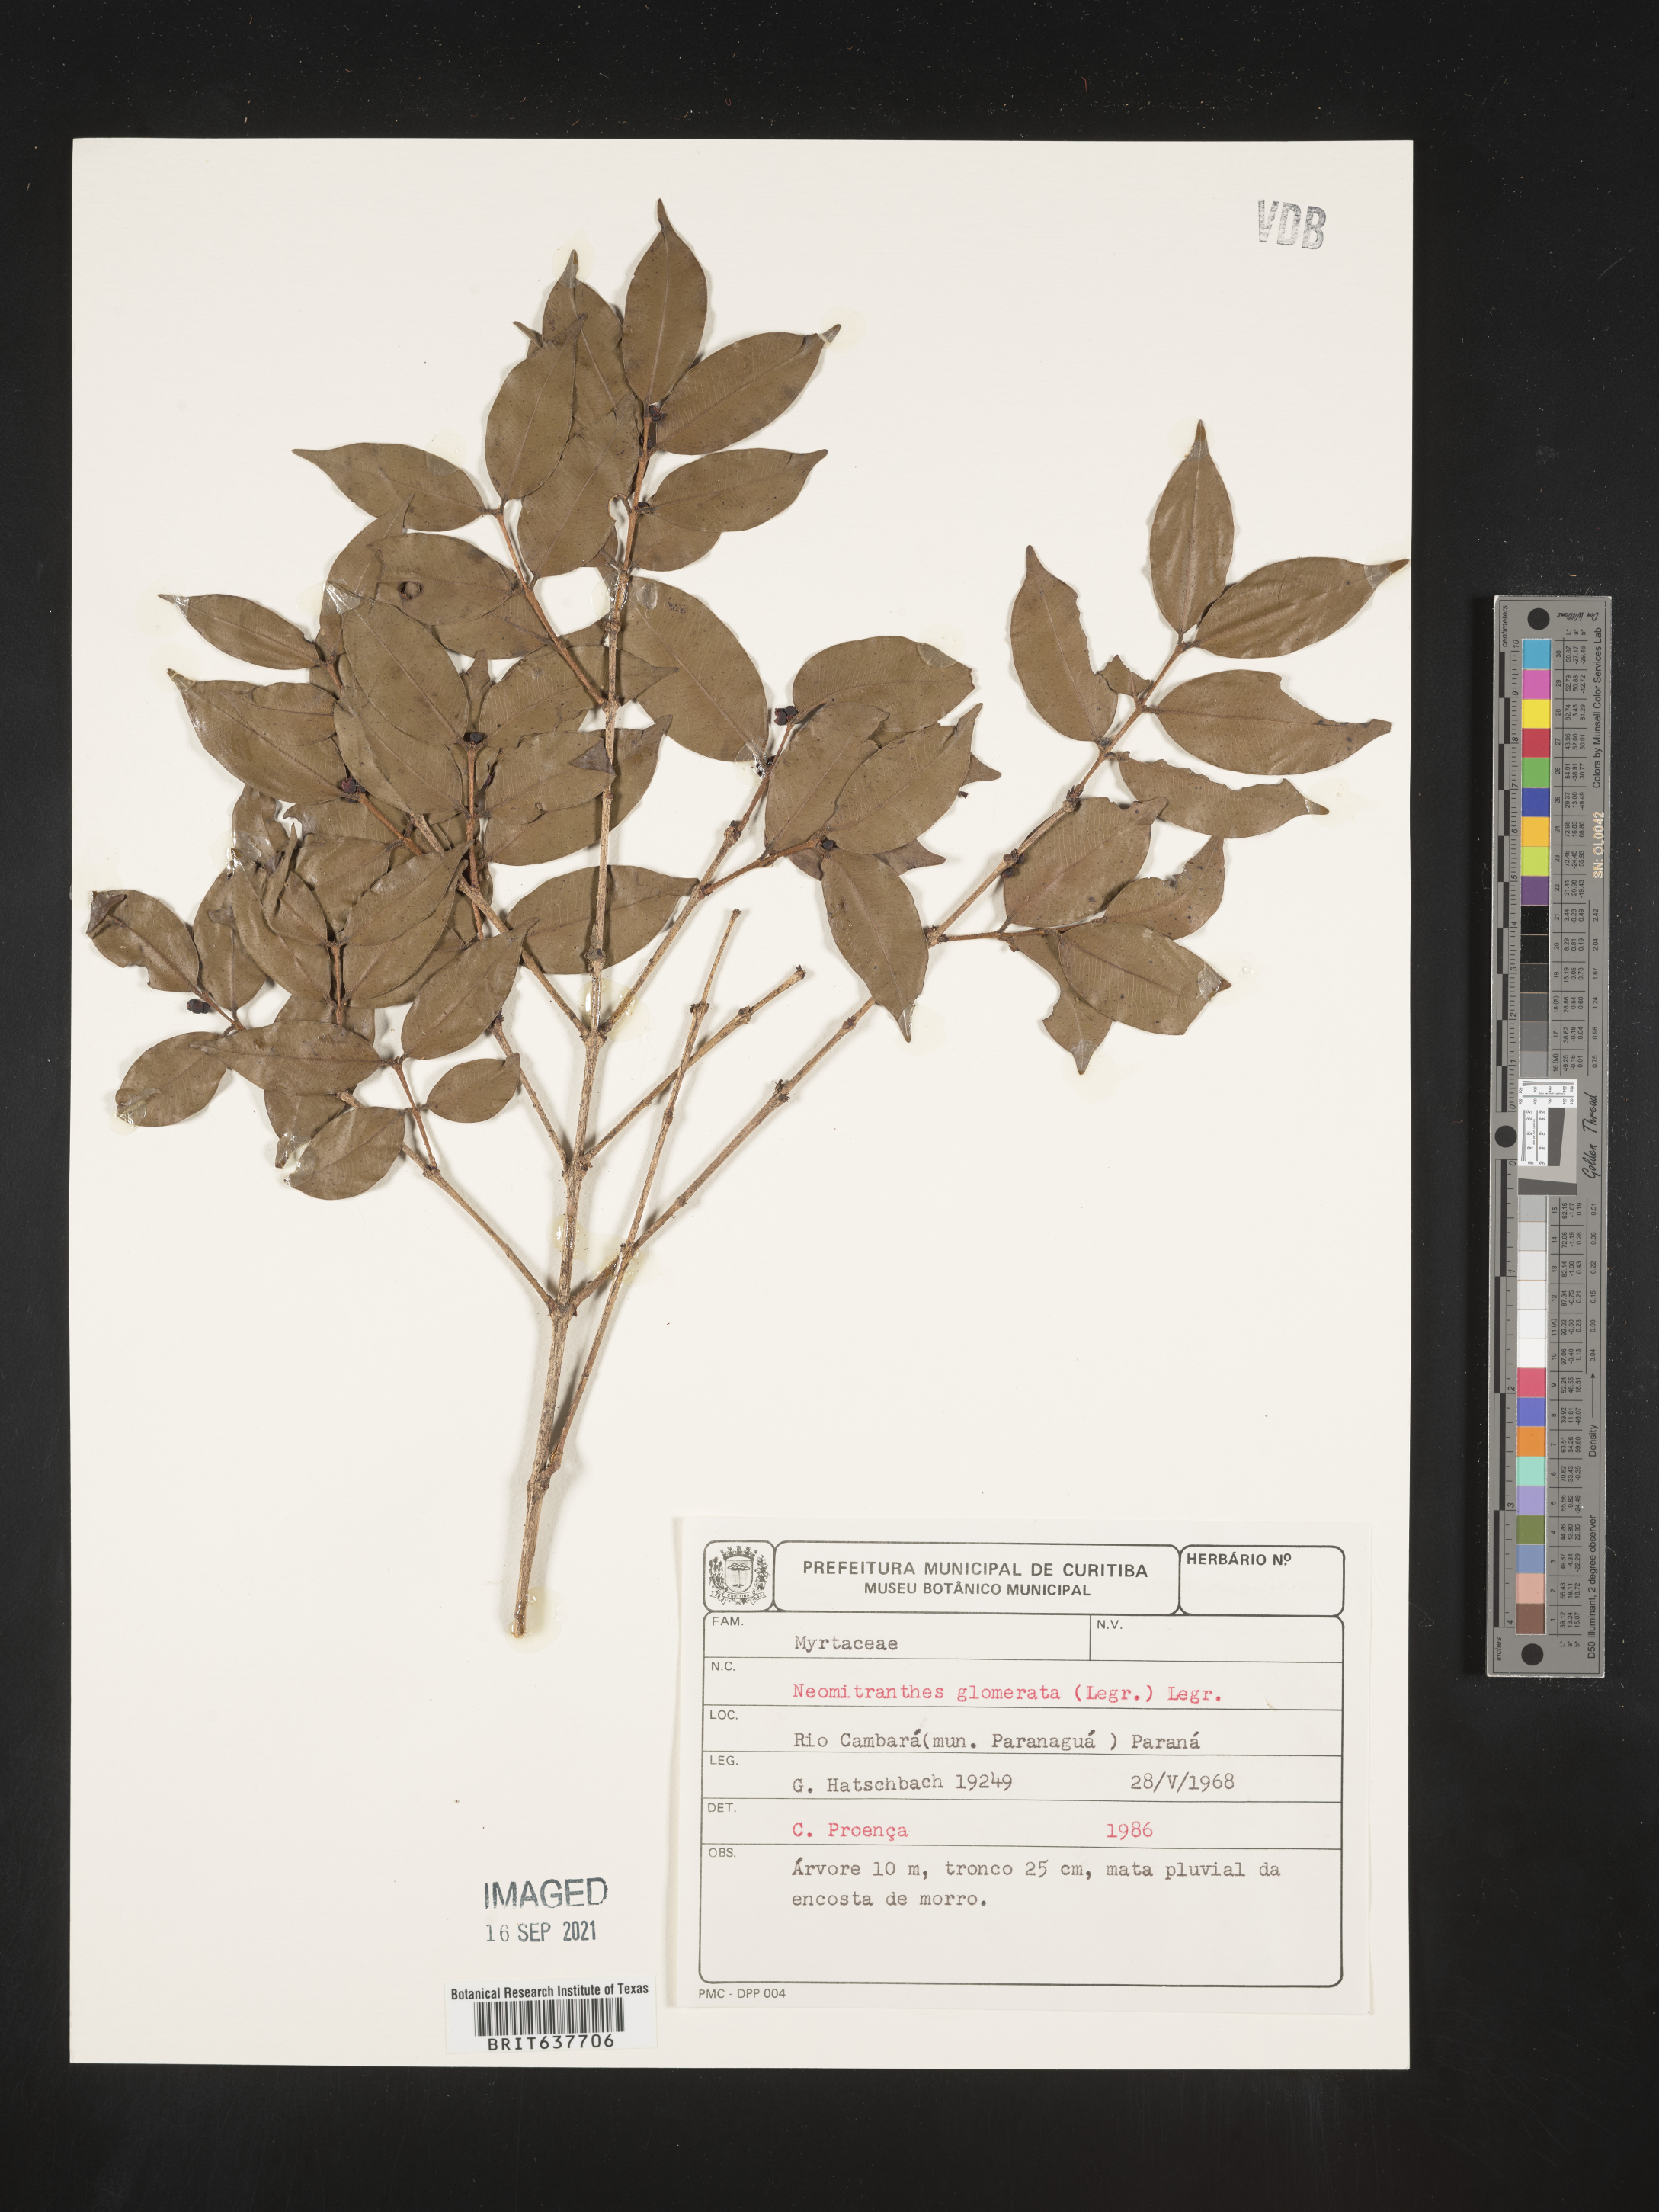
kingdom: Plantae
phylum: Tracheophyta
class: Magnoliopsida
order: Myrtales
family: Myrtaceae
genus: Neomitranthes
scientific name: Neomitranthes
